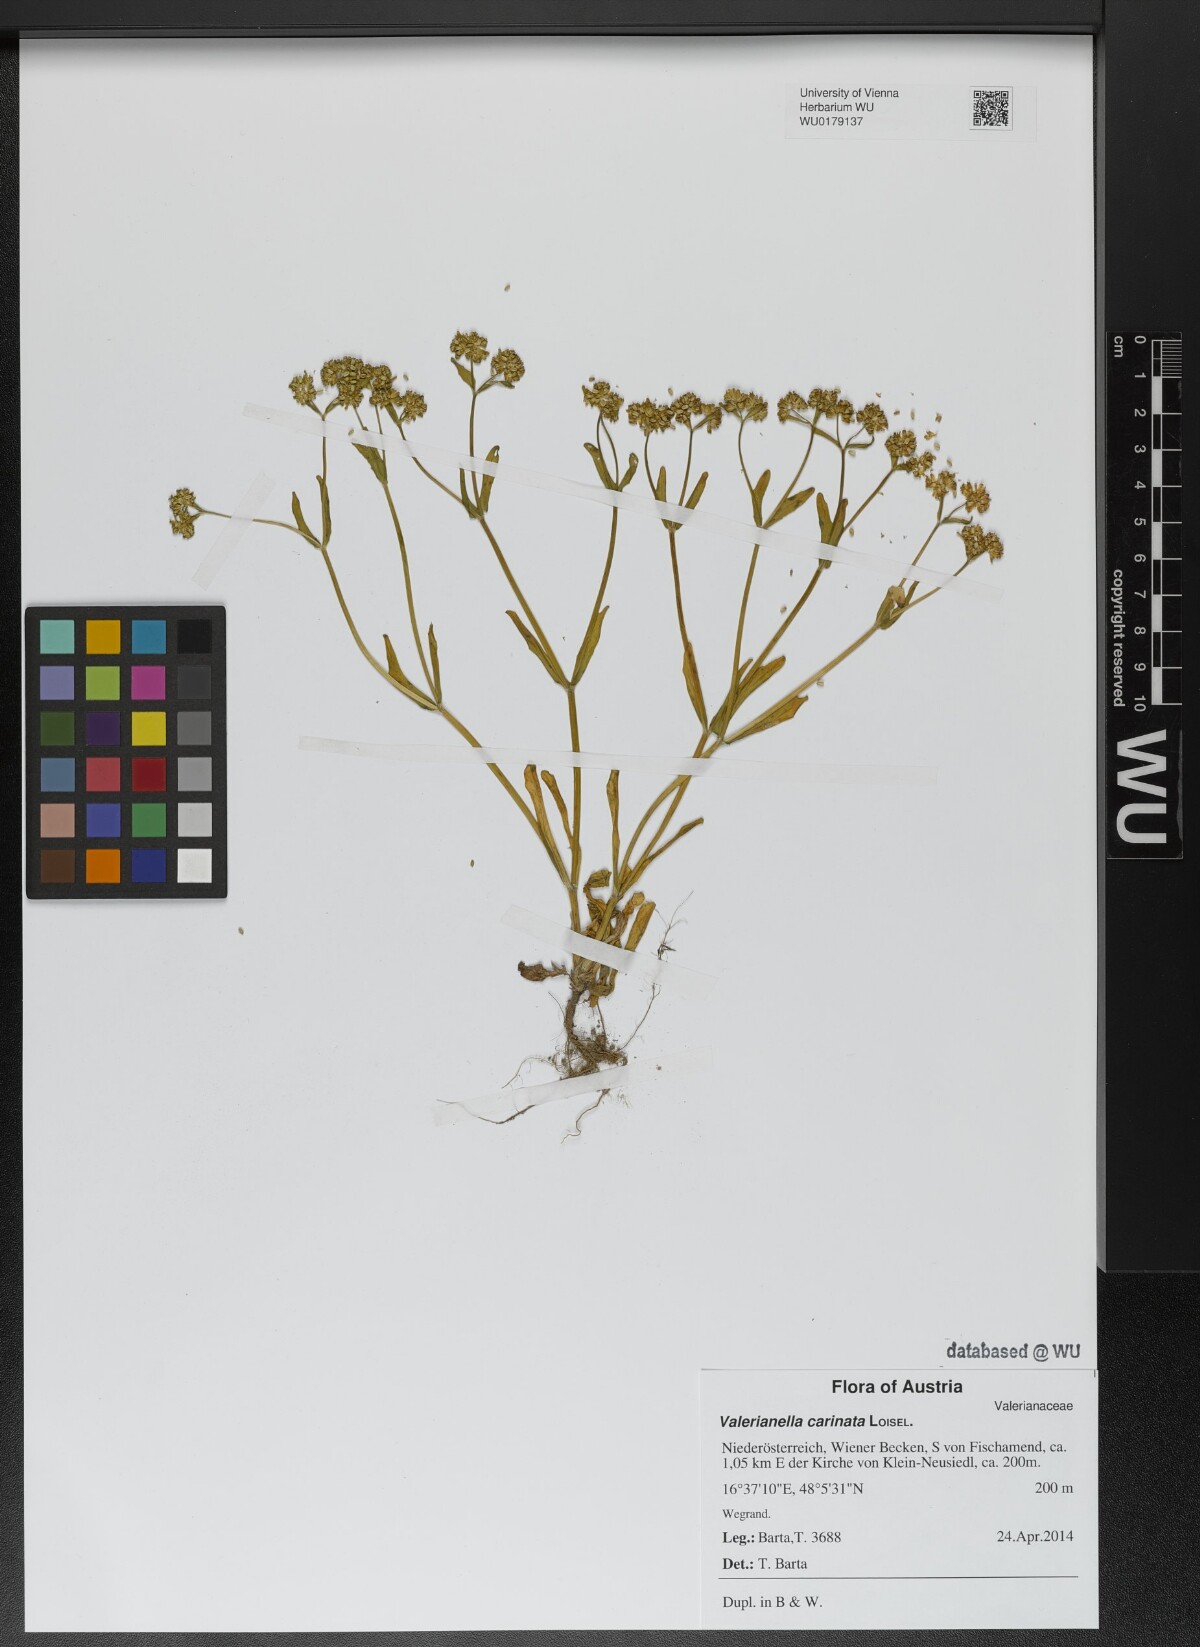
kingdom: Plantae
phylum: Tracheophyta
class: Magnoliopsida
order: Dipsacales
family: Caprifoliaceae
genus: Valerianella
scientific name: Valerianella carinata
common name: Keeled-fruited cornsalad
